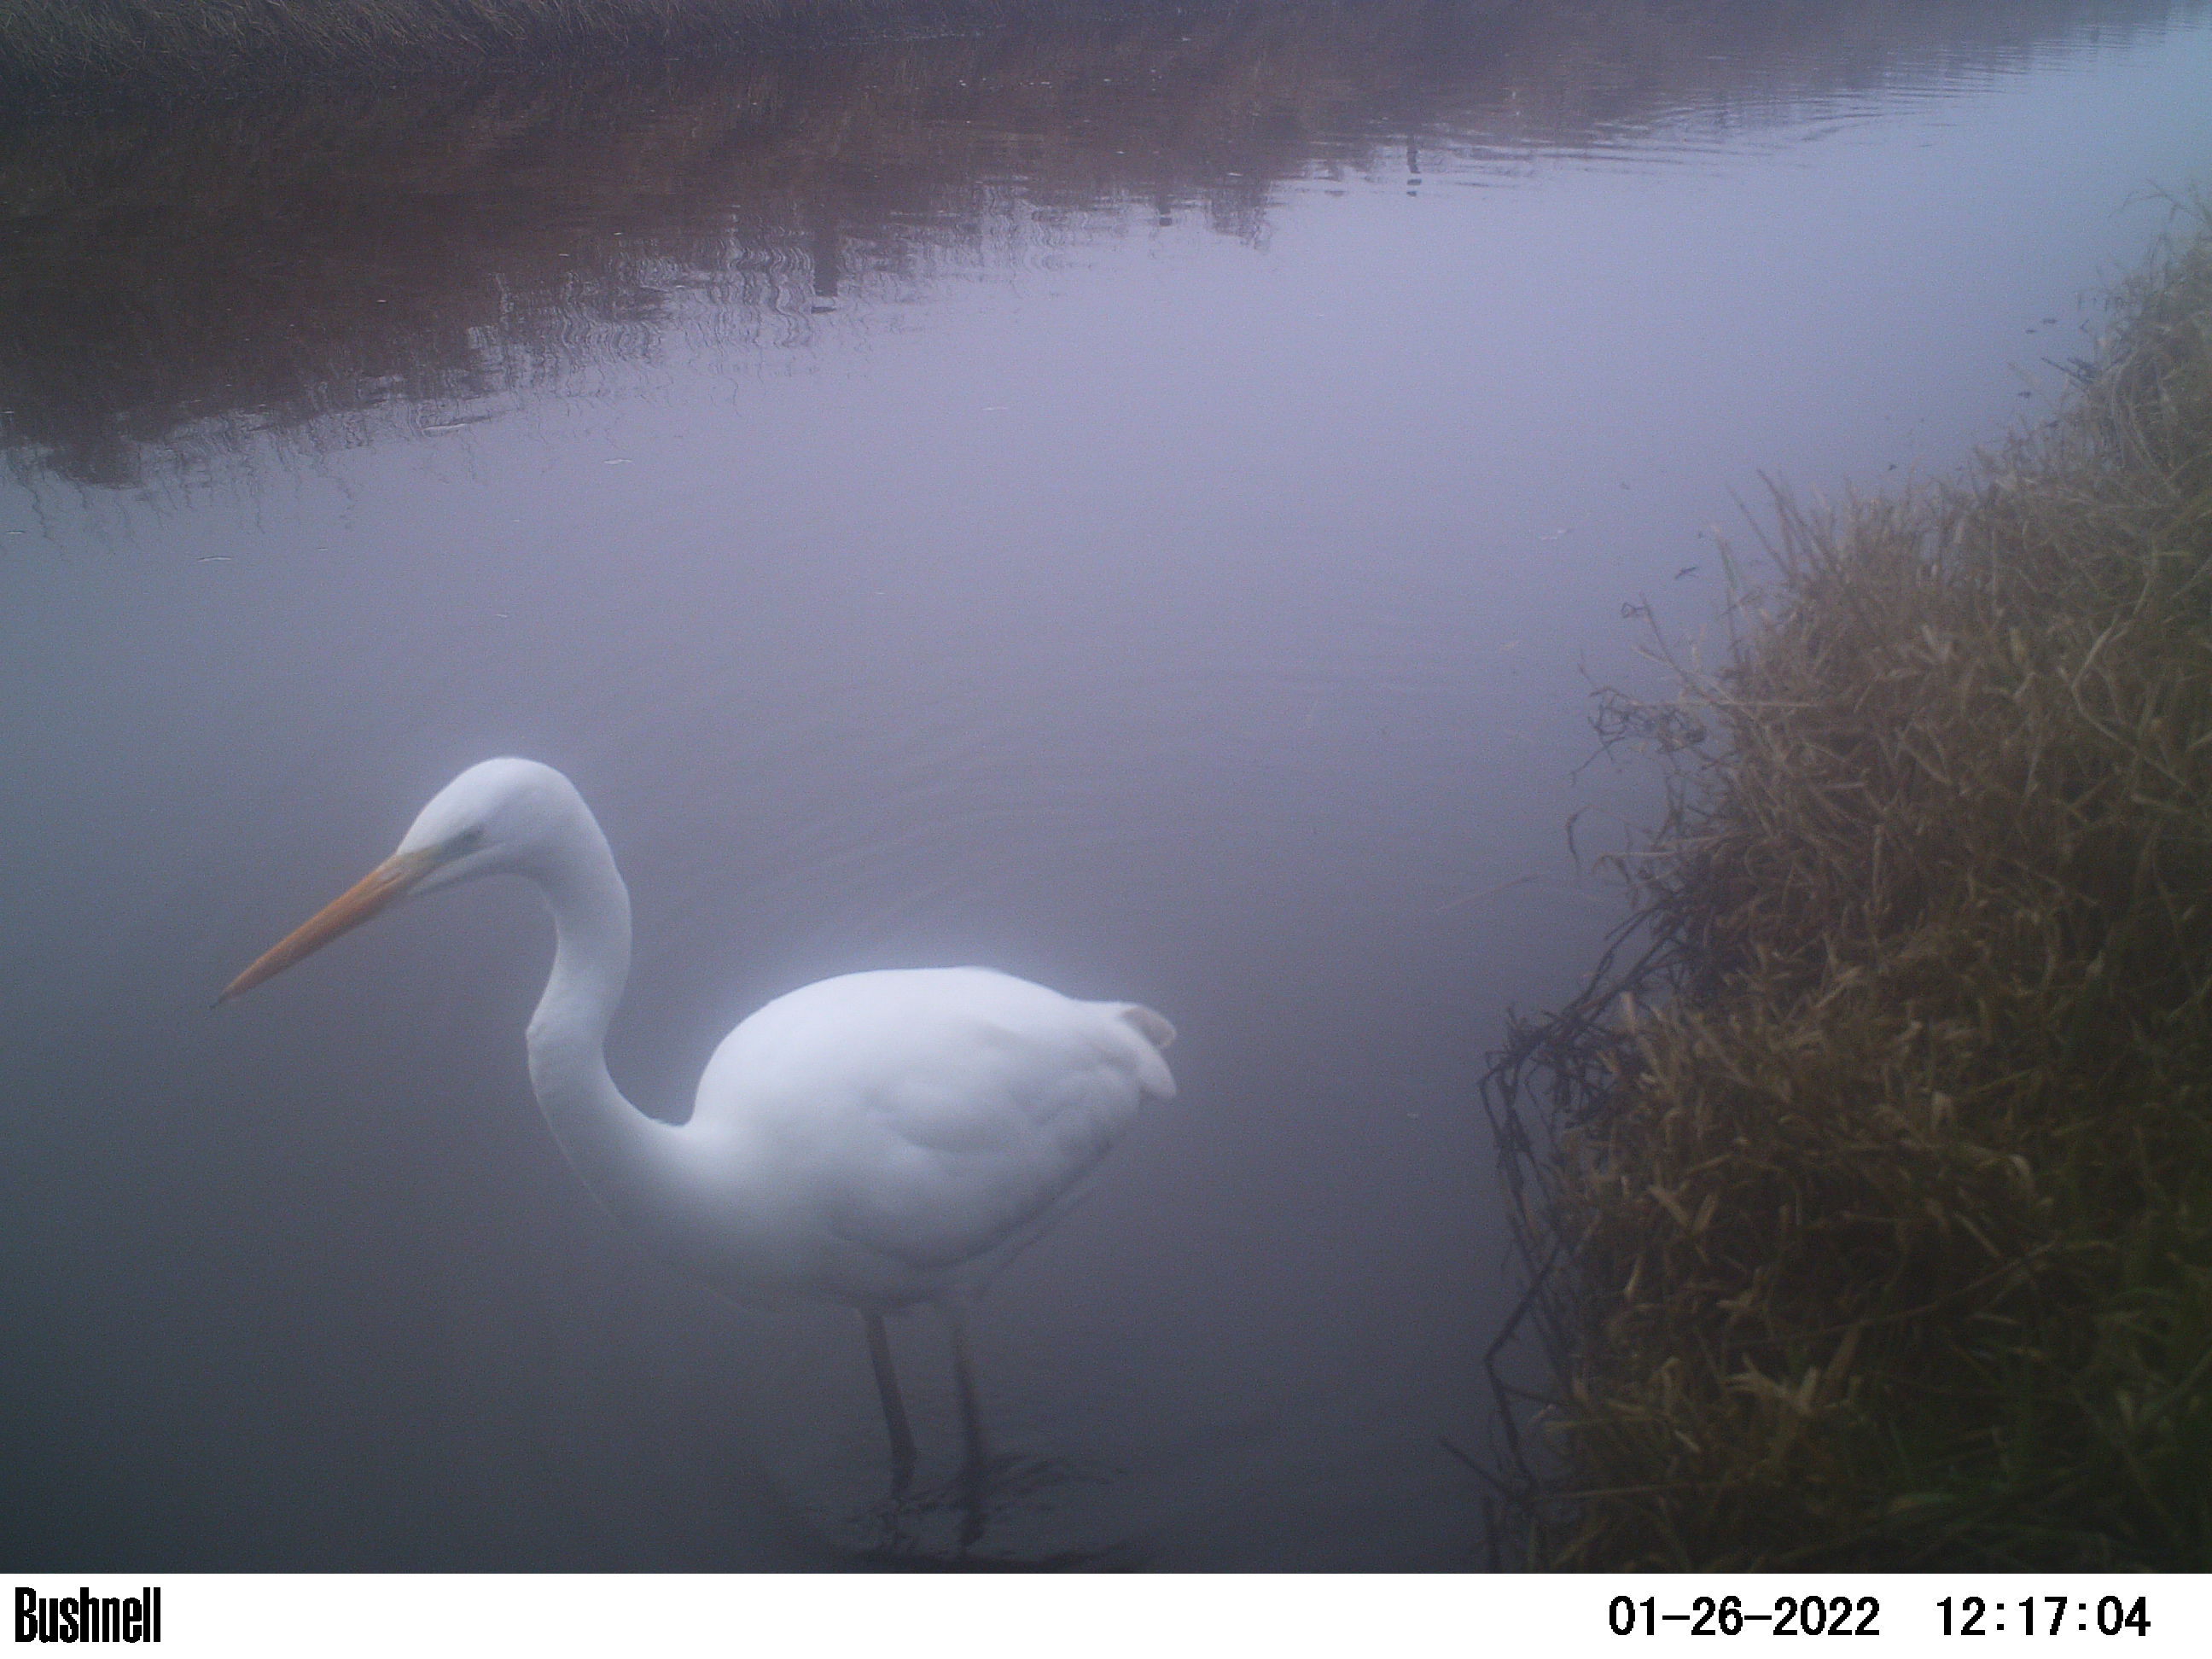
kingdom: Animalia
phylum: Chordata
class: Aves
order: Pelecaniformes
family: Ardeidae
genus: Ardea
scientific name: Ardea alba
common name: Great egret
